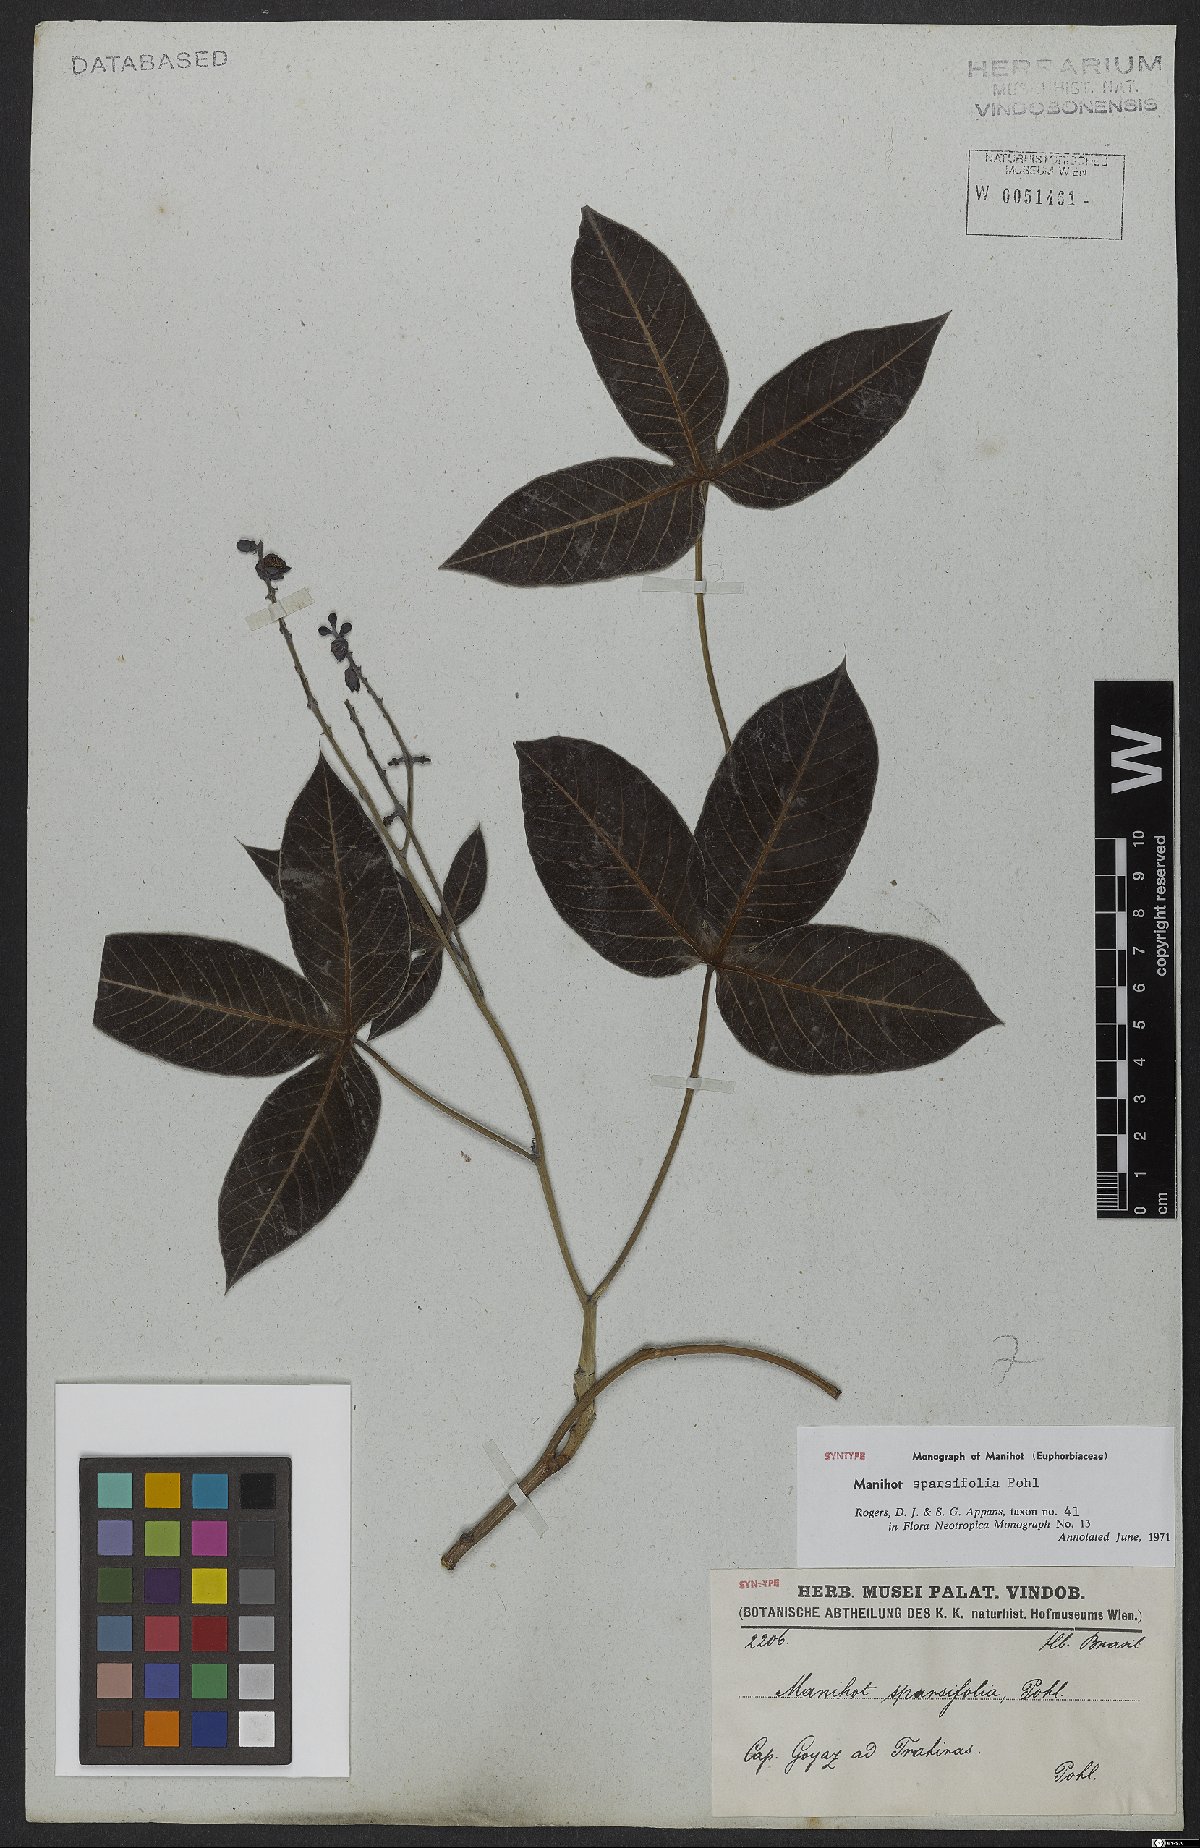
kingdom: Plantae
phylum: Tracheophyta
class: Magnoliopsida
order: Malpighiales
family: Euphorbiaceae
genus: Manihot
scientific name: Manihot sparsifolia
